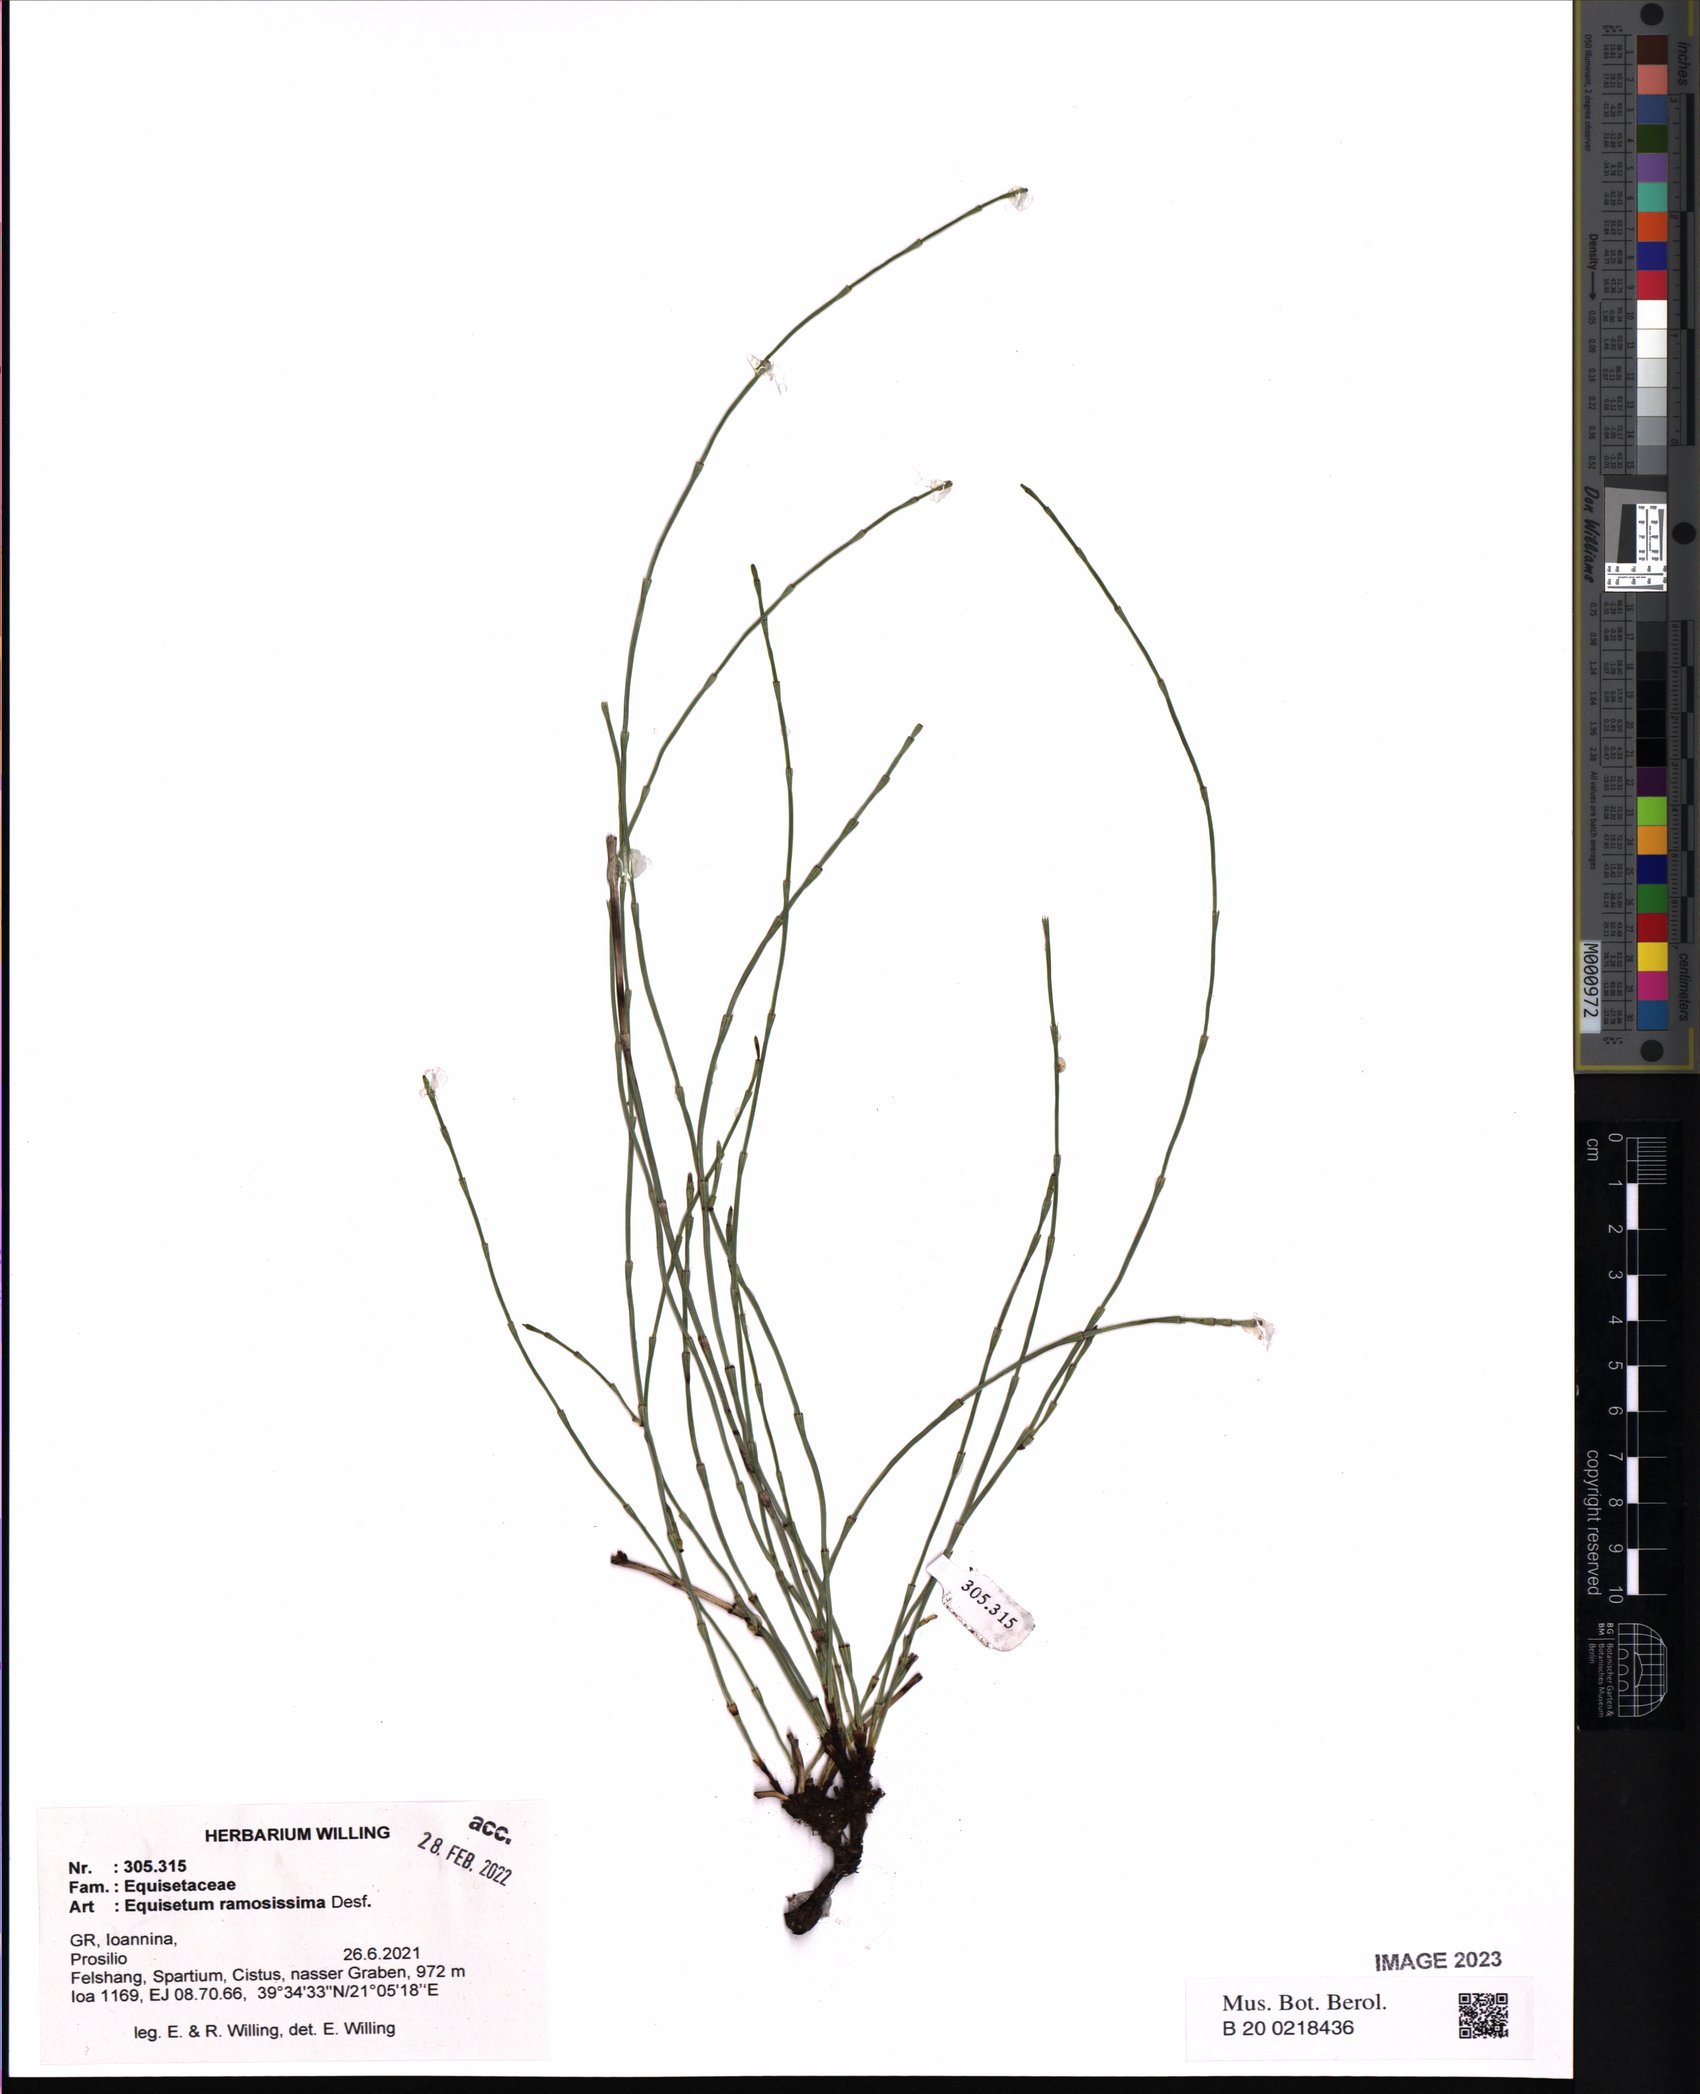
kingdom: Plantae
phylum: Tracheophyta
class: Polypodiopsida
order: Equisetales
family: Equisetaceae
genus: Equisetum
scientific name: Equisetum ramosissimum
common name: Branched horsetail
